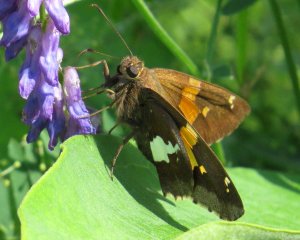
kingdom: Animalia
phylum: Arthropoda
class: Insecta
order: Lepidoptera
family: Hesperiidae
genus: Epargyreus
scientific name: Epargyreus clarus
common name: Silver-spotted Skipper
